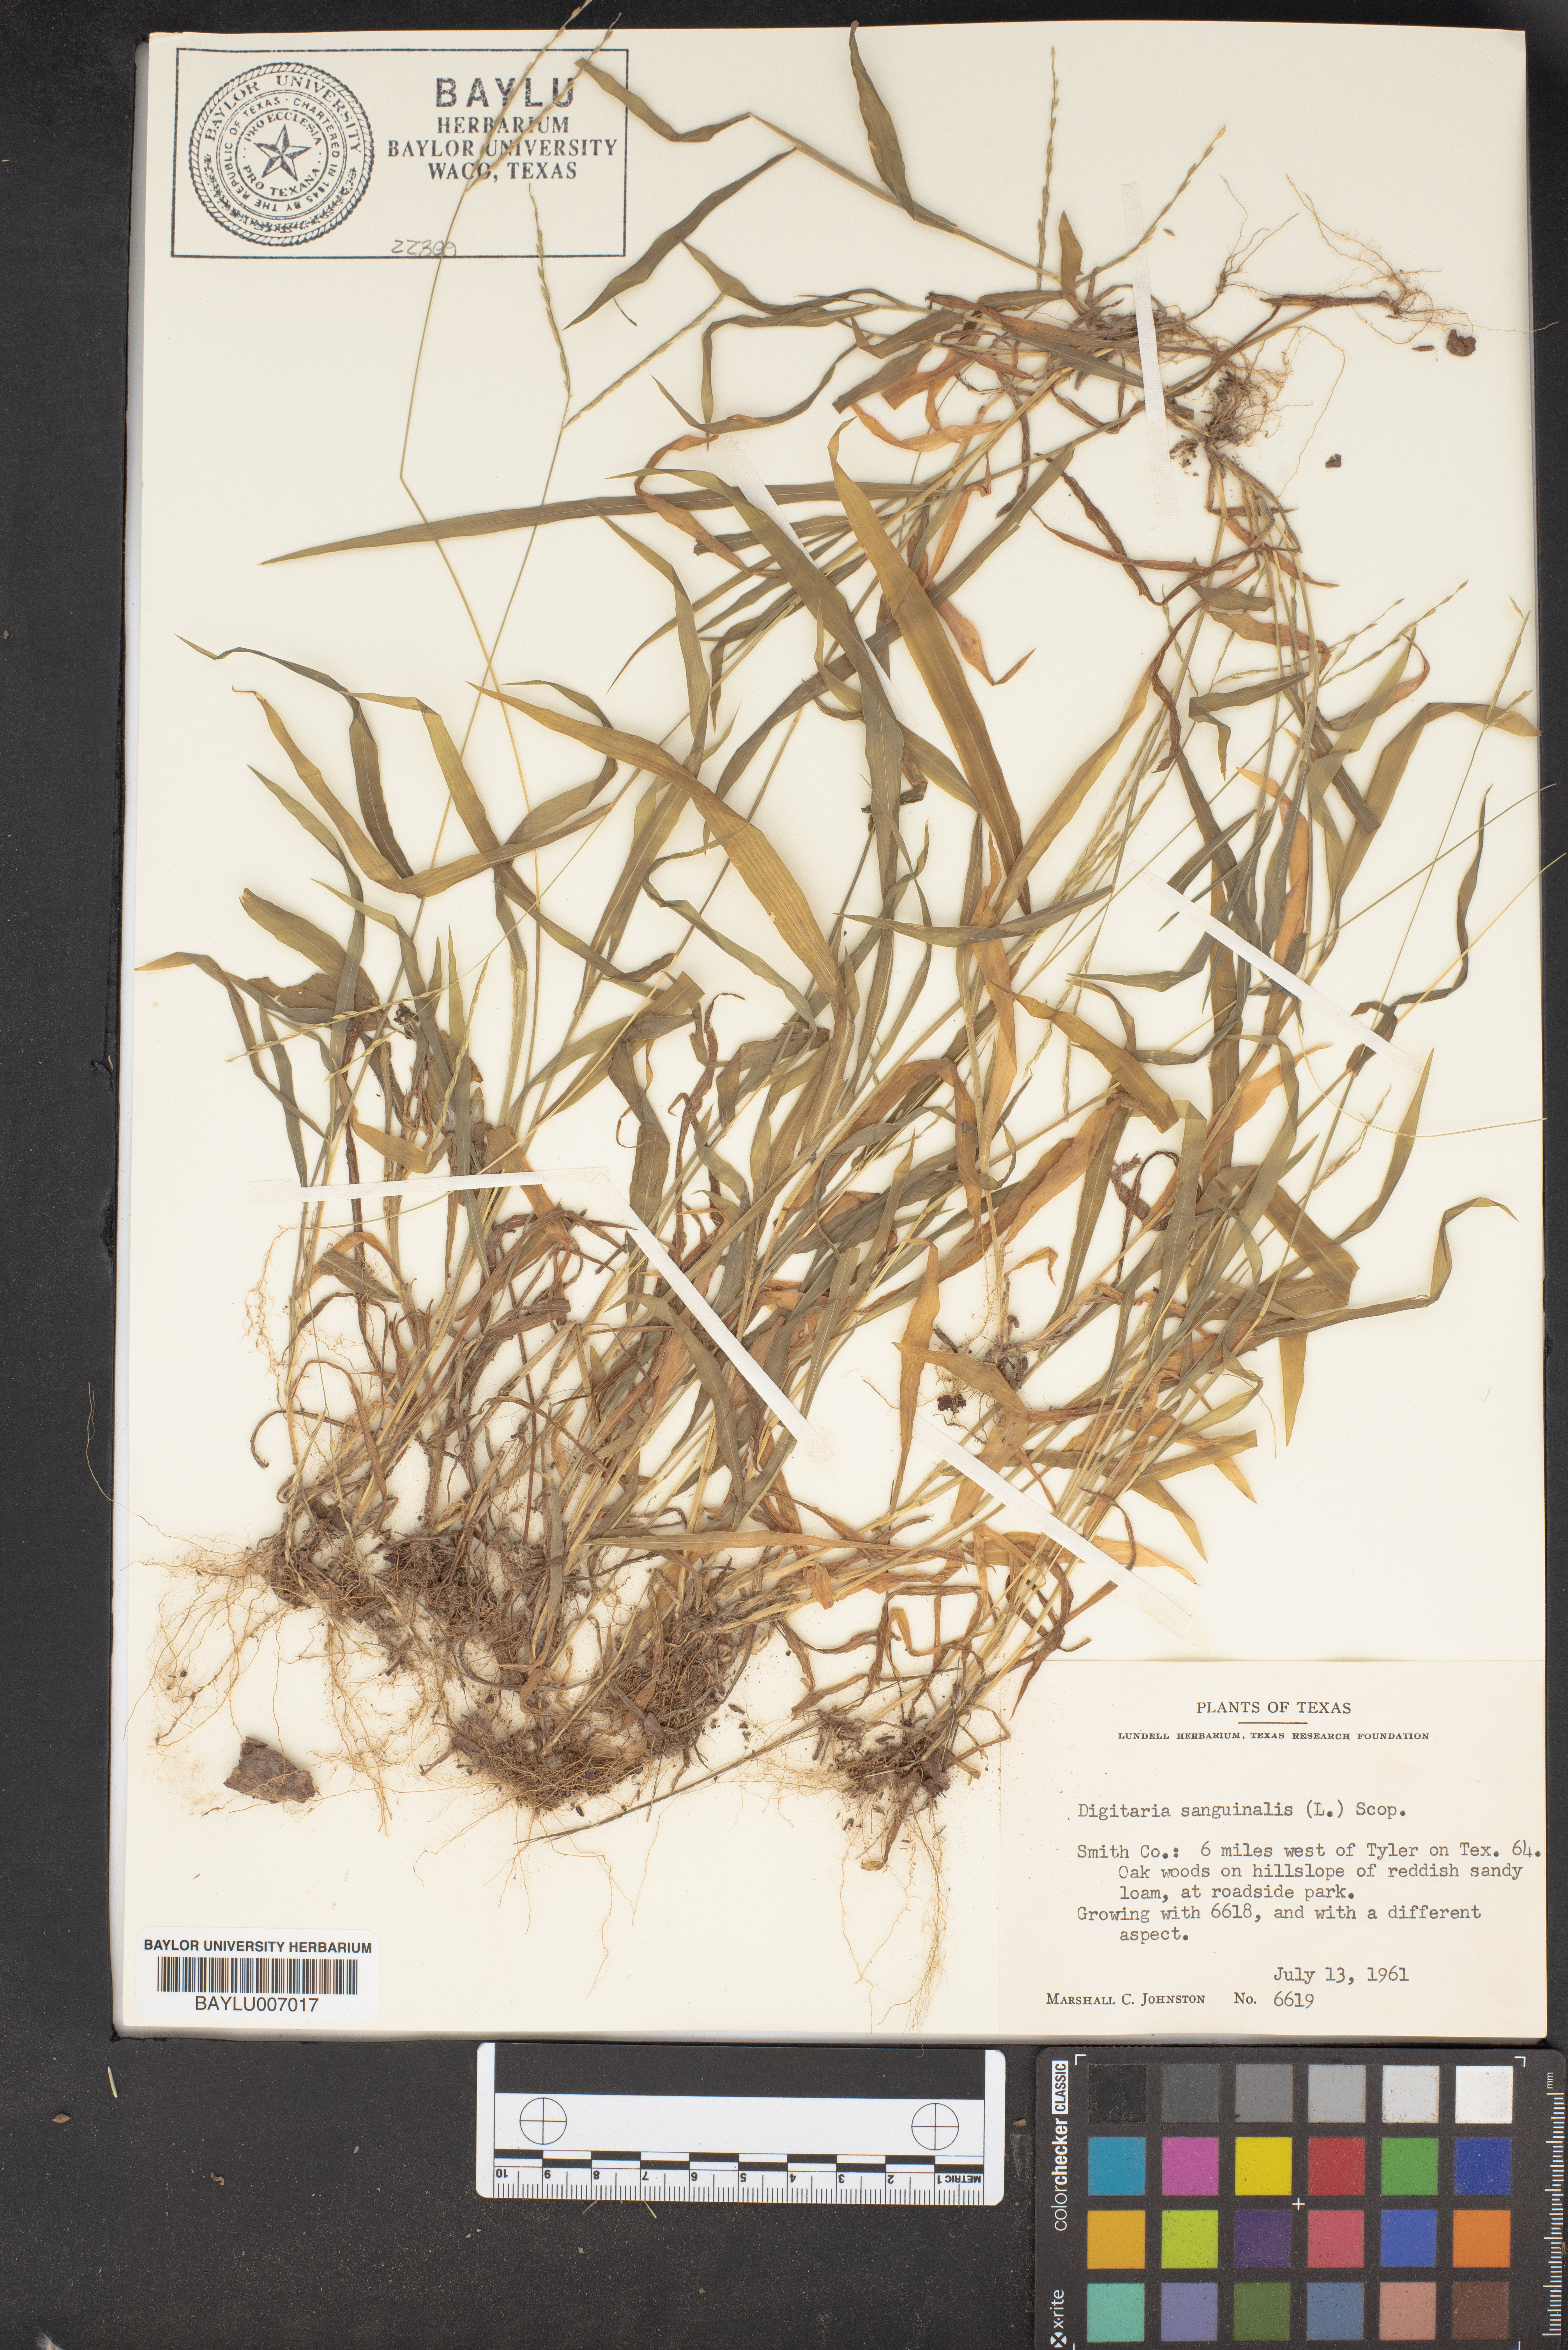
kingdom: Plantae
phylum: Tracheophyta
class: Liliopsida
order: Poales
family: Poaceae
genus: Digitaria
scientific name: Digitaria sanguinalis
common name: Hairy crabgrass
